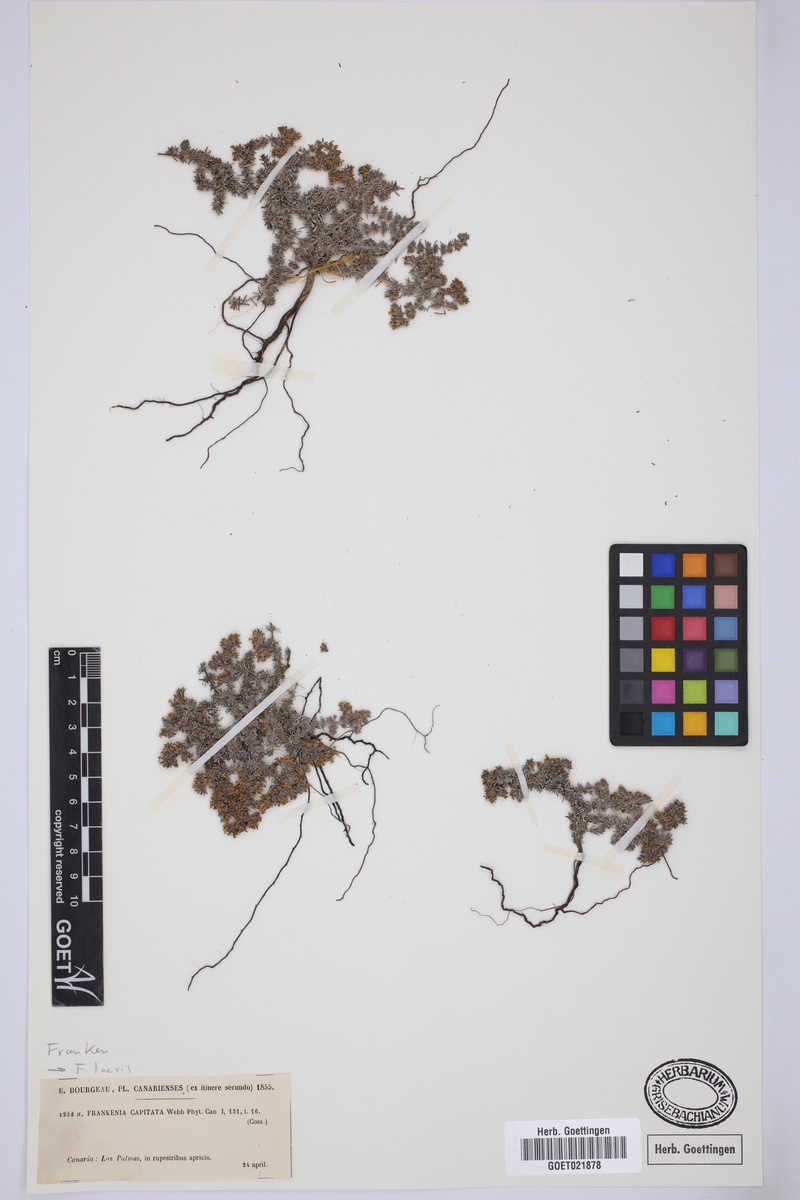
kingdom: Plantae
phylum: Tracheophyta
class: Magnoliopsida
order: Caryophyllales
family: Frankeniaceae
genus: Frankenia
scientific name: Frankenia laevis
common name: Sea-heath
